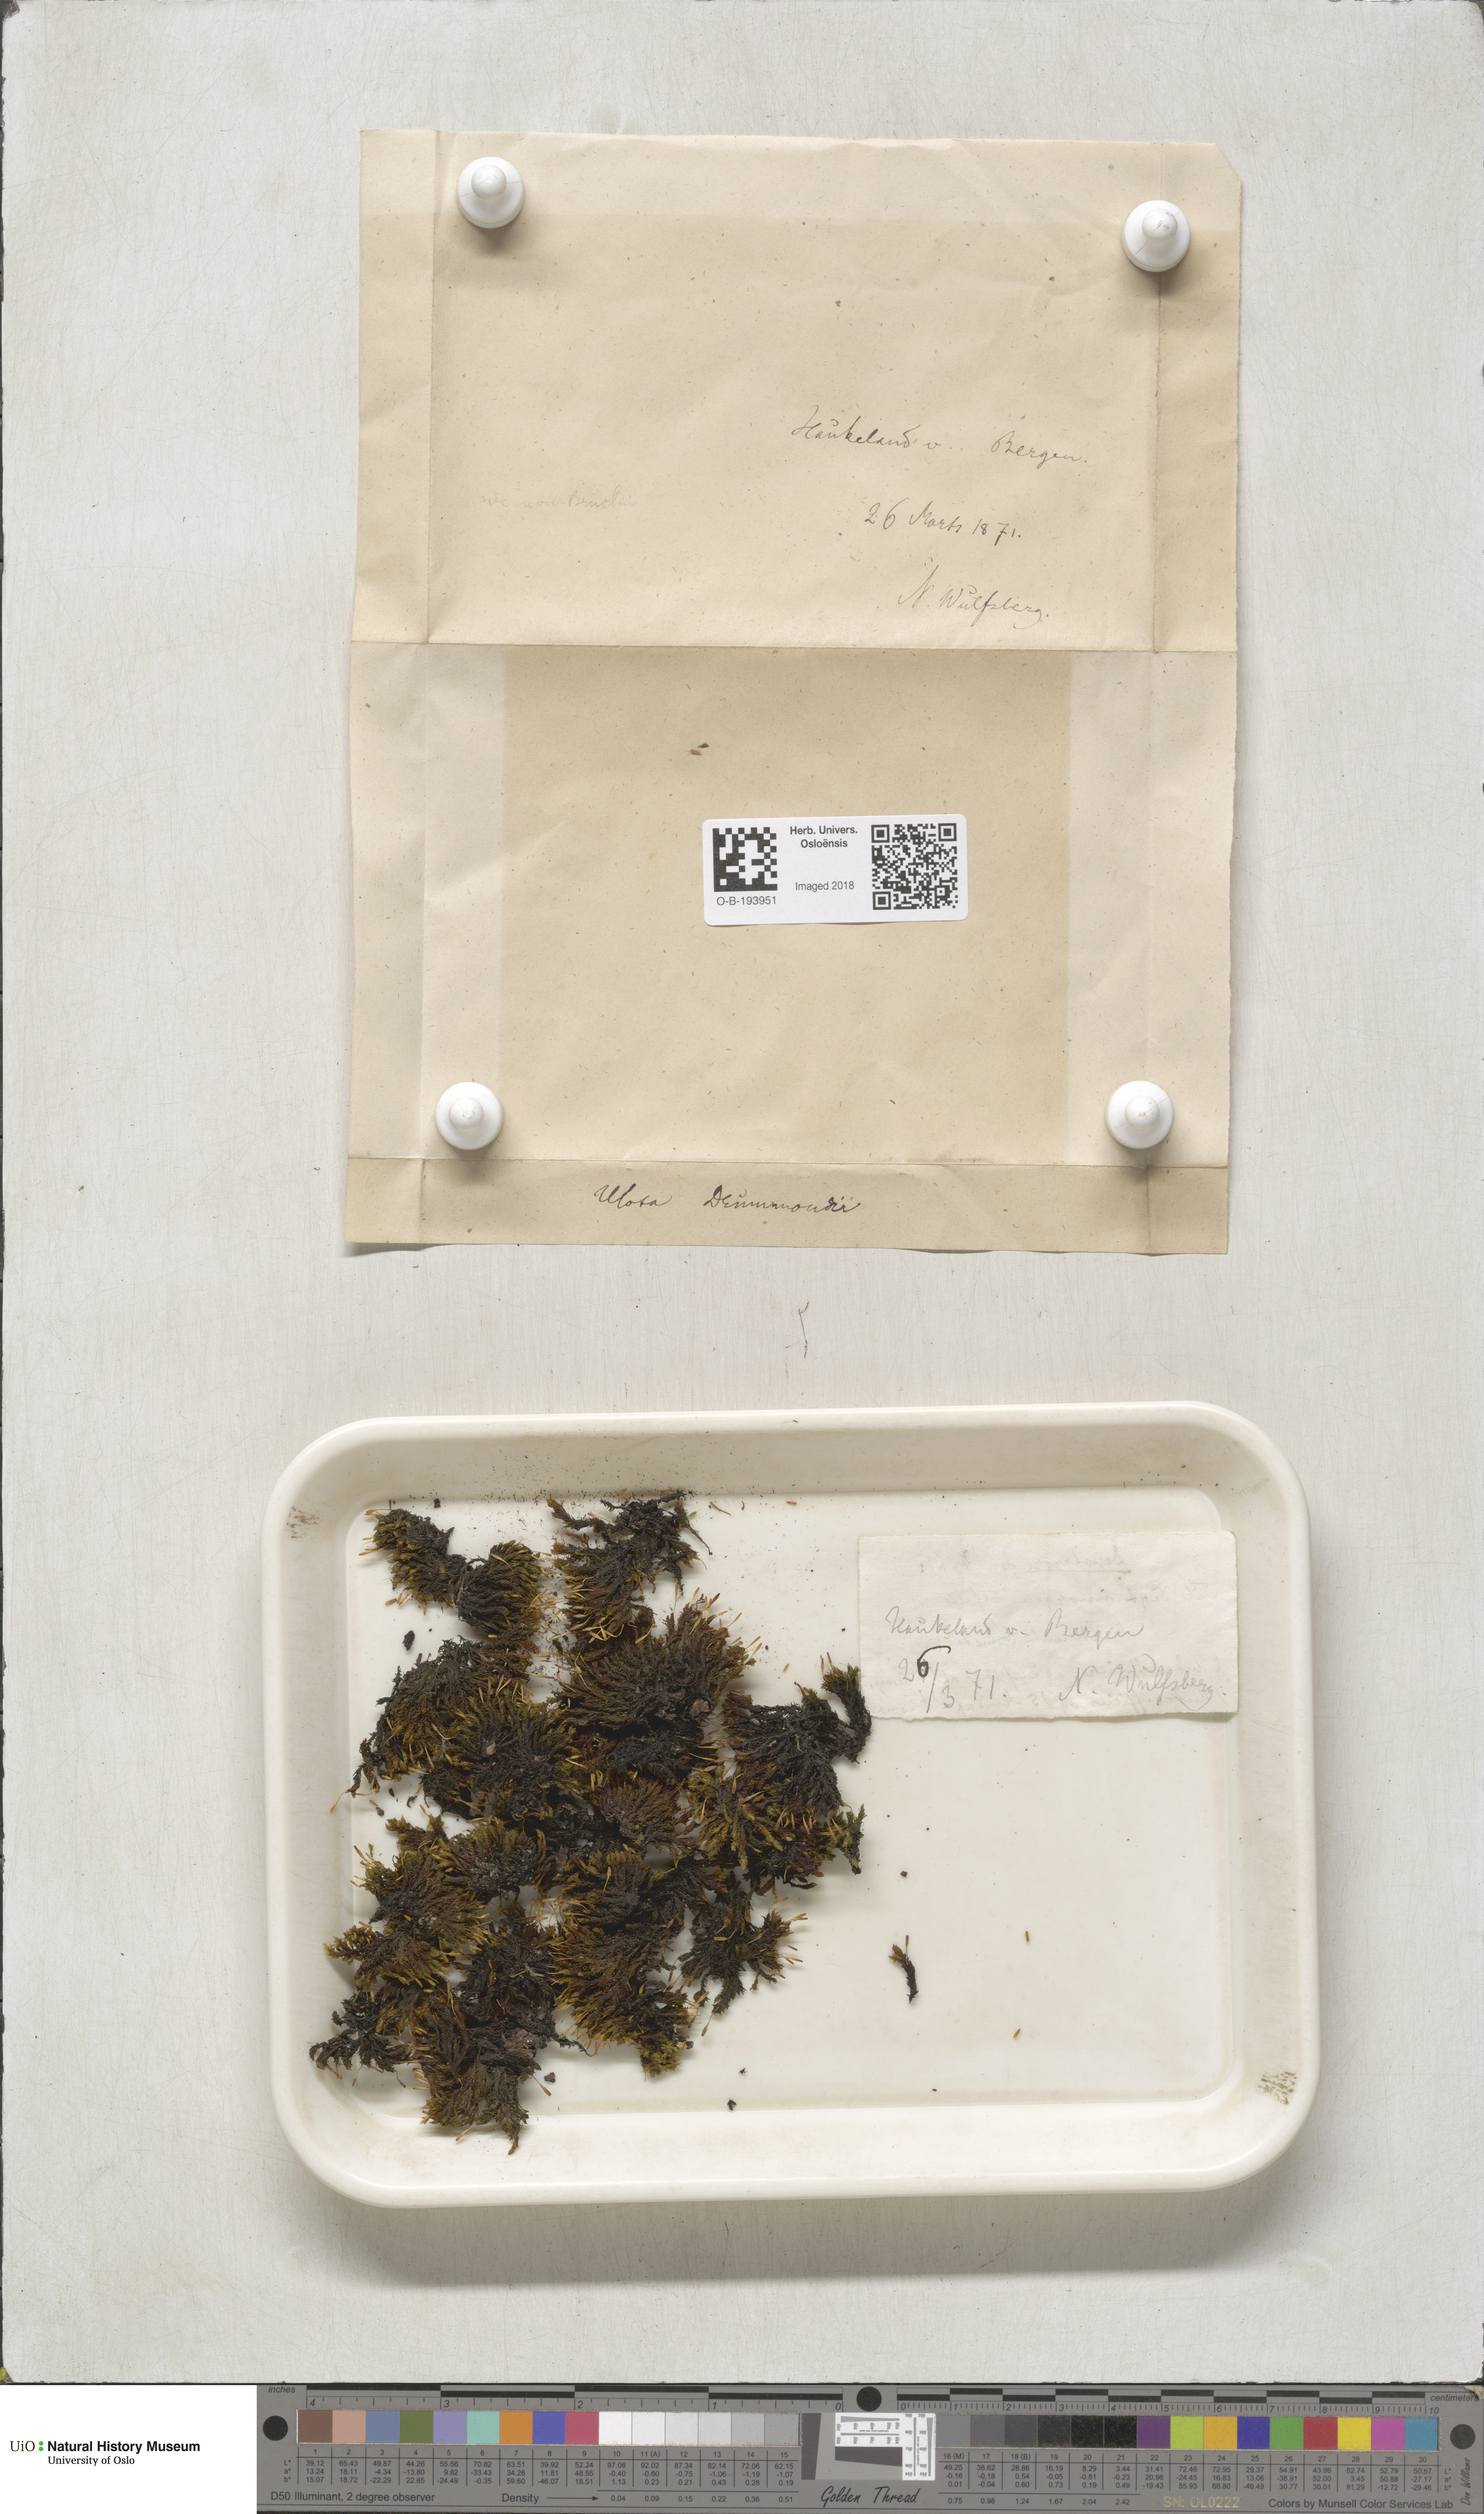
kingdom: Plantae
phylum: Bryophyta
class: Bryopsida
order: Orthotrichales
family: Orthotrichaceae
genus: Ulota
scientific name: Ulota drummondii
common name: Drummond's pincushion moss
